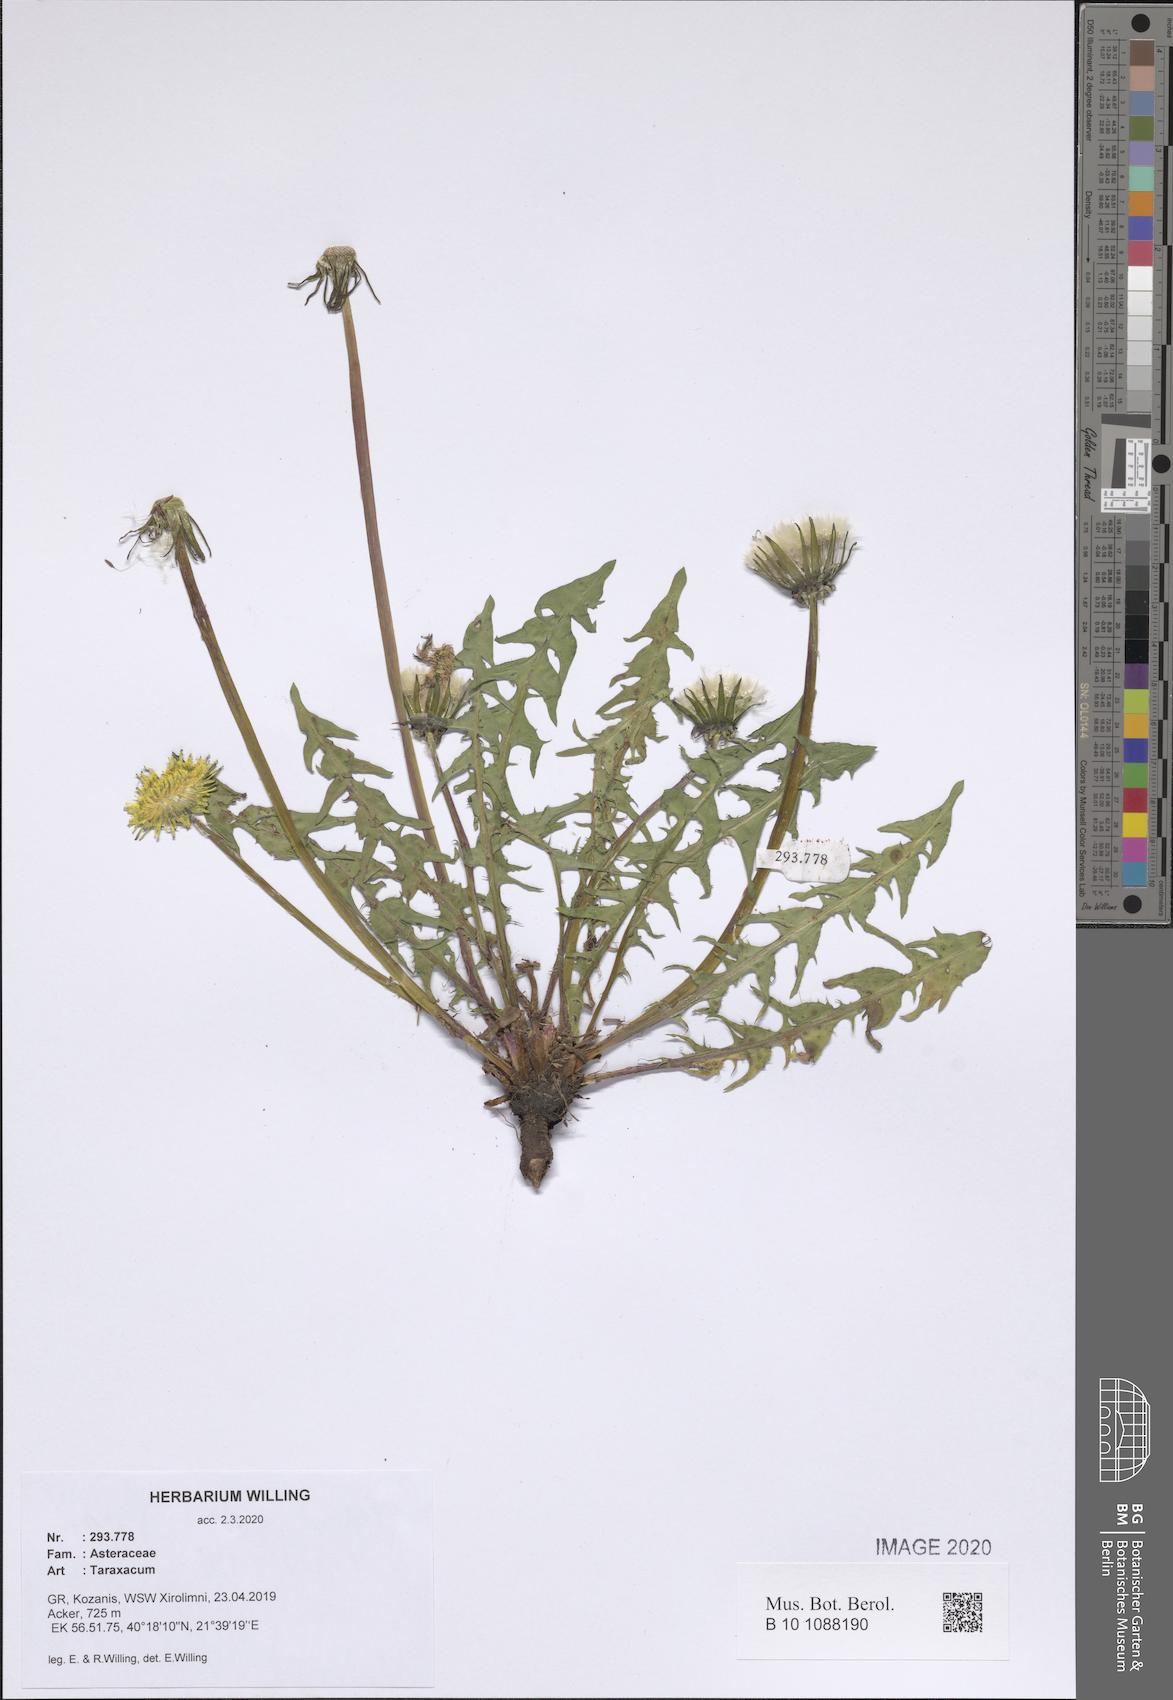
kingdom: Plantae
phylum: Tracheophyta
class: Magnoliopsida
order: Asterales
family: Asteraceae
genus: Taraxacum
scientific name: Taraxacum
